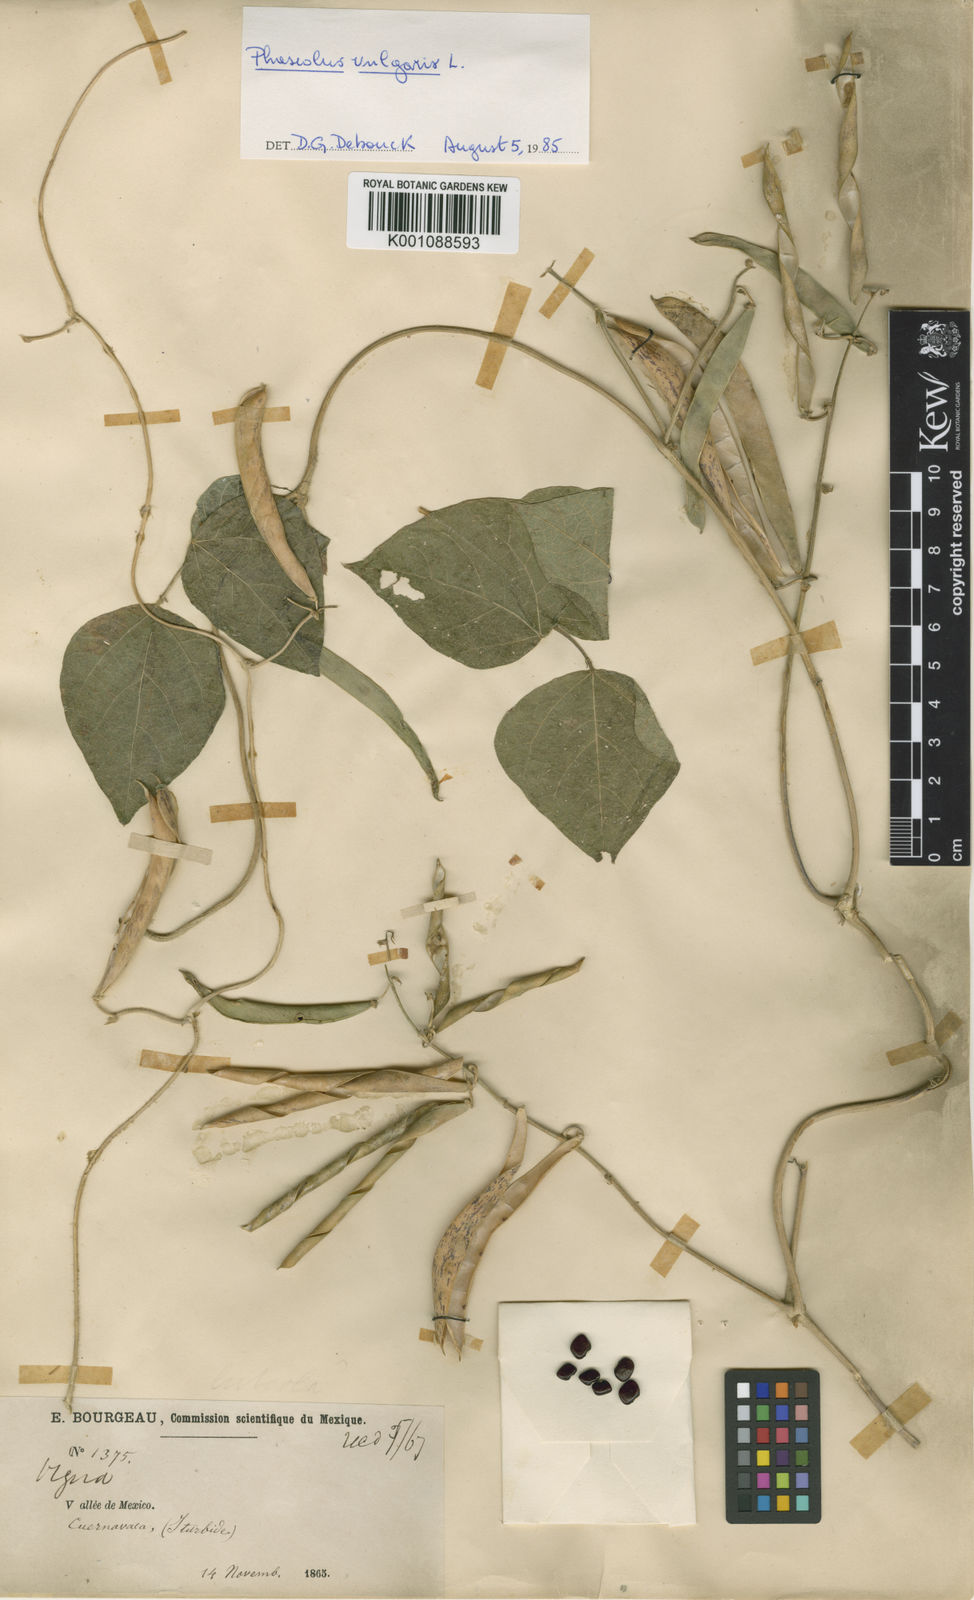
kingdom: Plantae
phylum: Tracheophyta
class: Magnoliopsida
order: Fabales
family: Fabaceae
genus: Phaseolus
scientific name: Phaseolus vulgaris
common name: Bean
